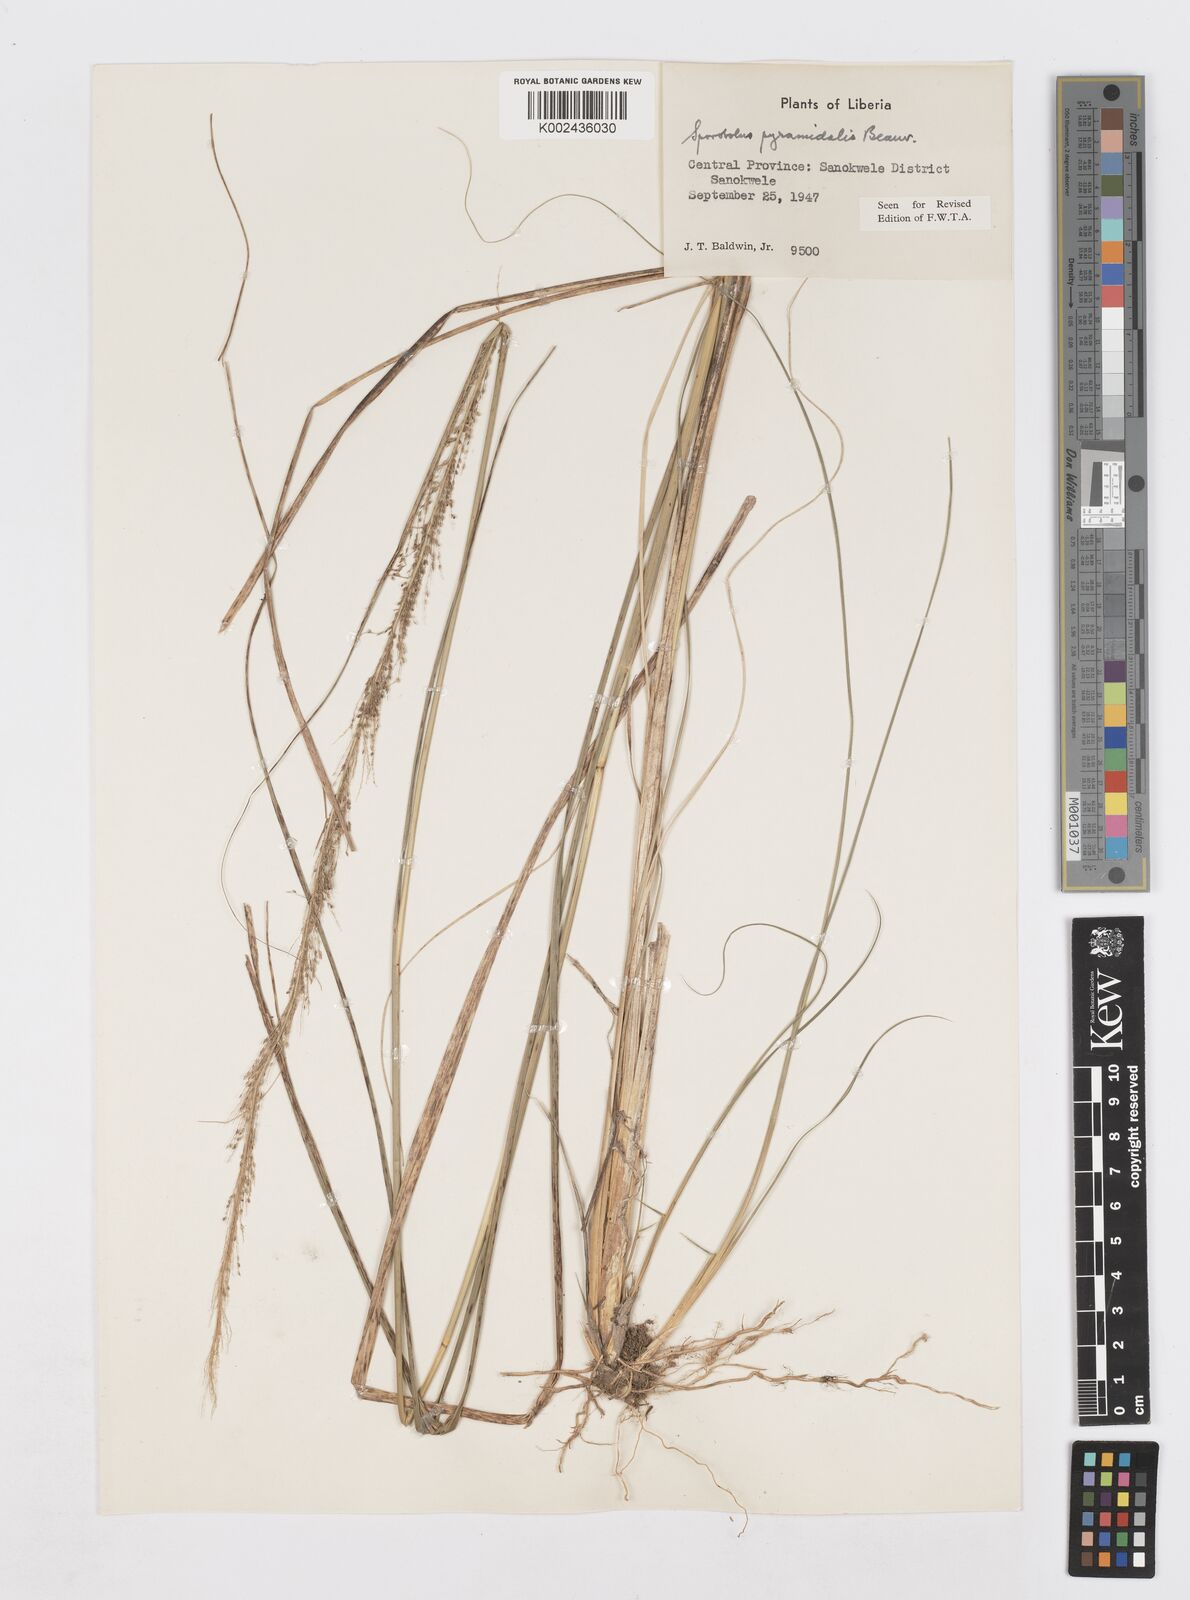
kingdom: Plantae
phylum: Tracheophyta
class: Liliopsida
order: Poales
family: Poaceae
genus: Sporobolus
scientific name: Sporobolus pyramidalis
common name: West indian dropseed
